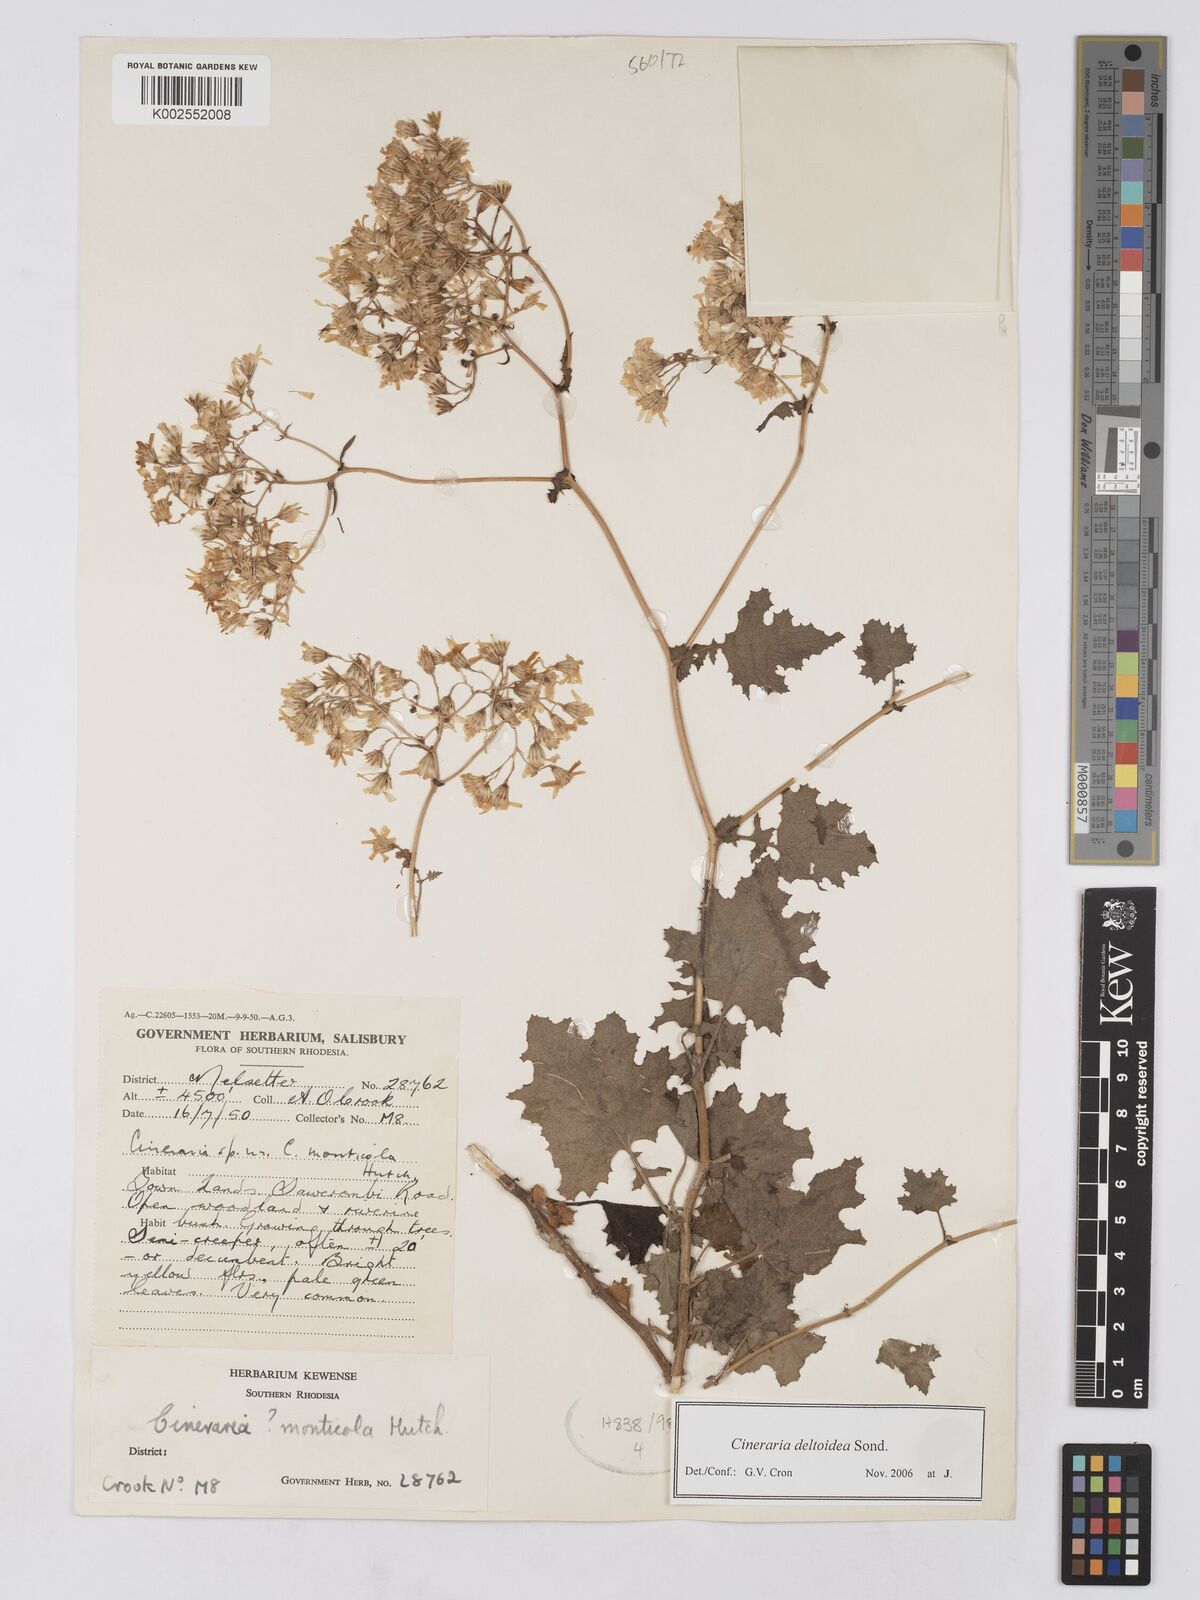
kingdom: Plantae
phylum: Tracheophyta
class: Magnoliopsida
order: Asterales
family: Asteraceae
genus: Cineraria
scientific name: Cineraria deltoidea
